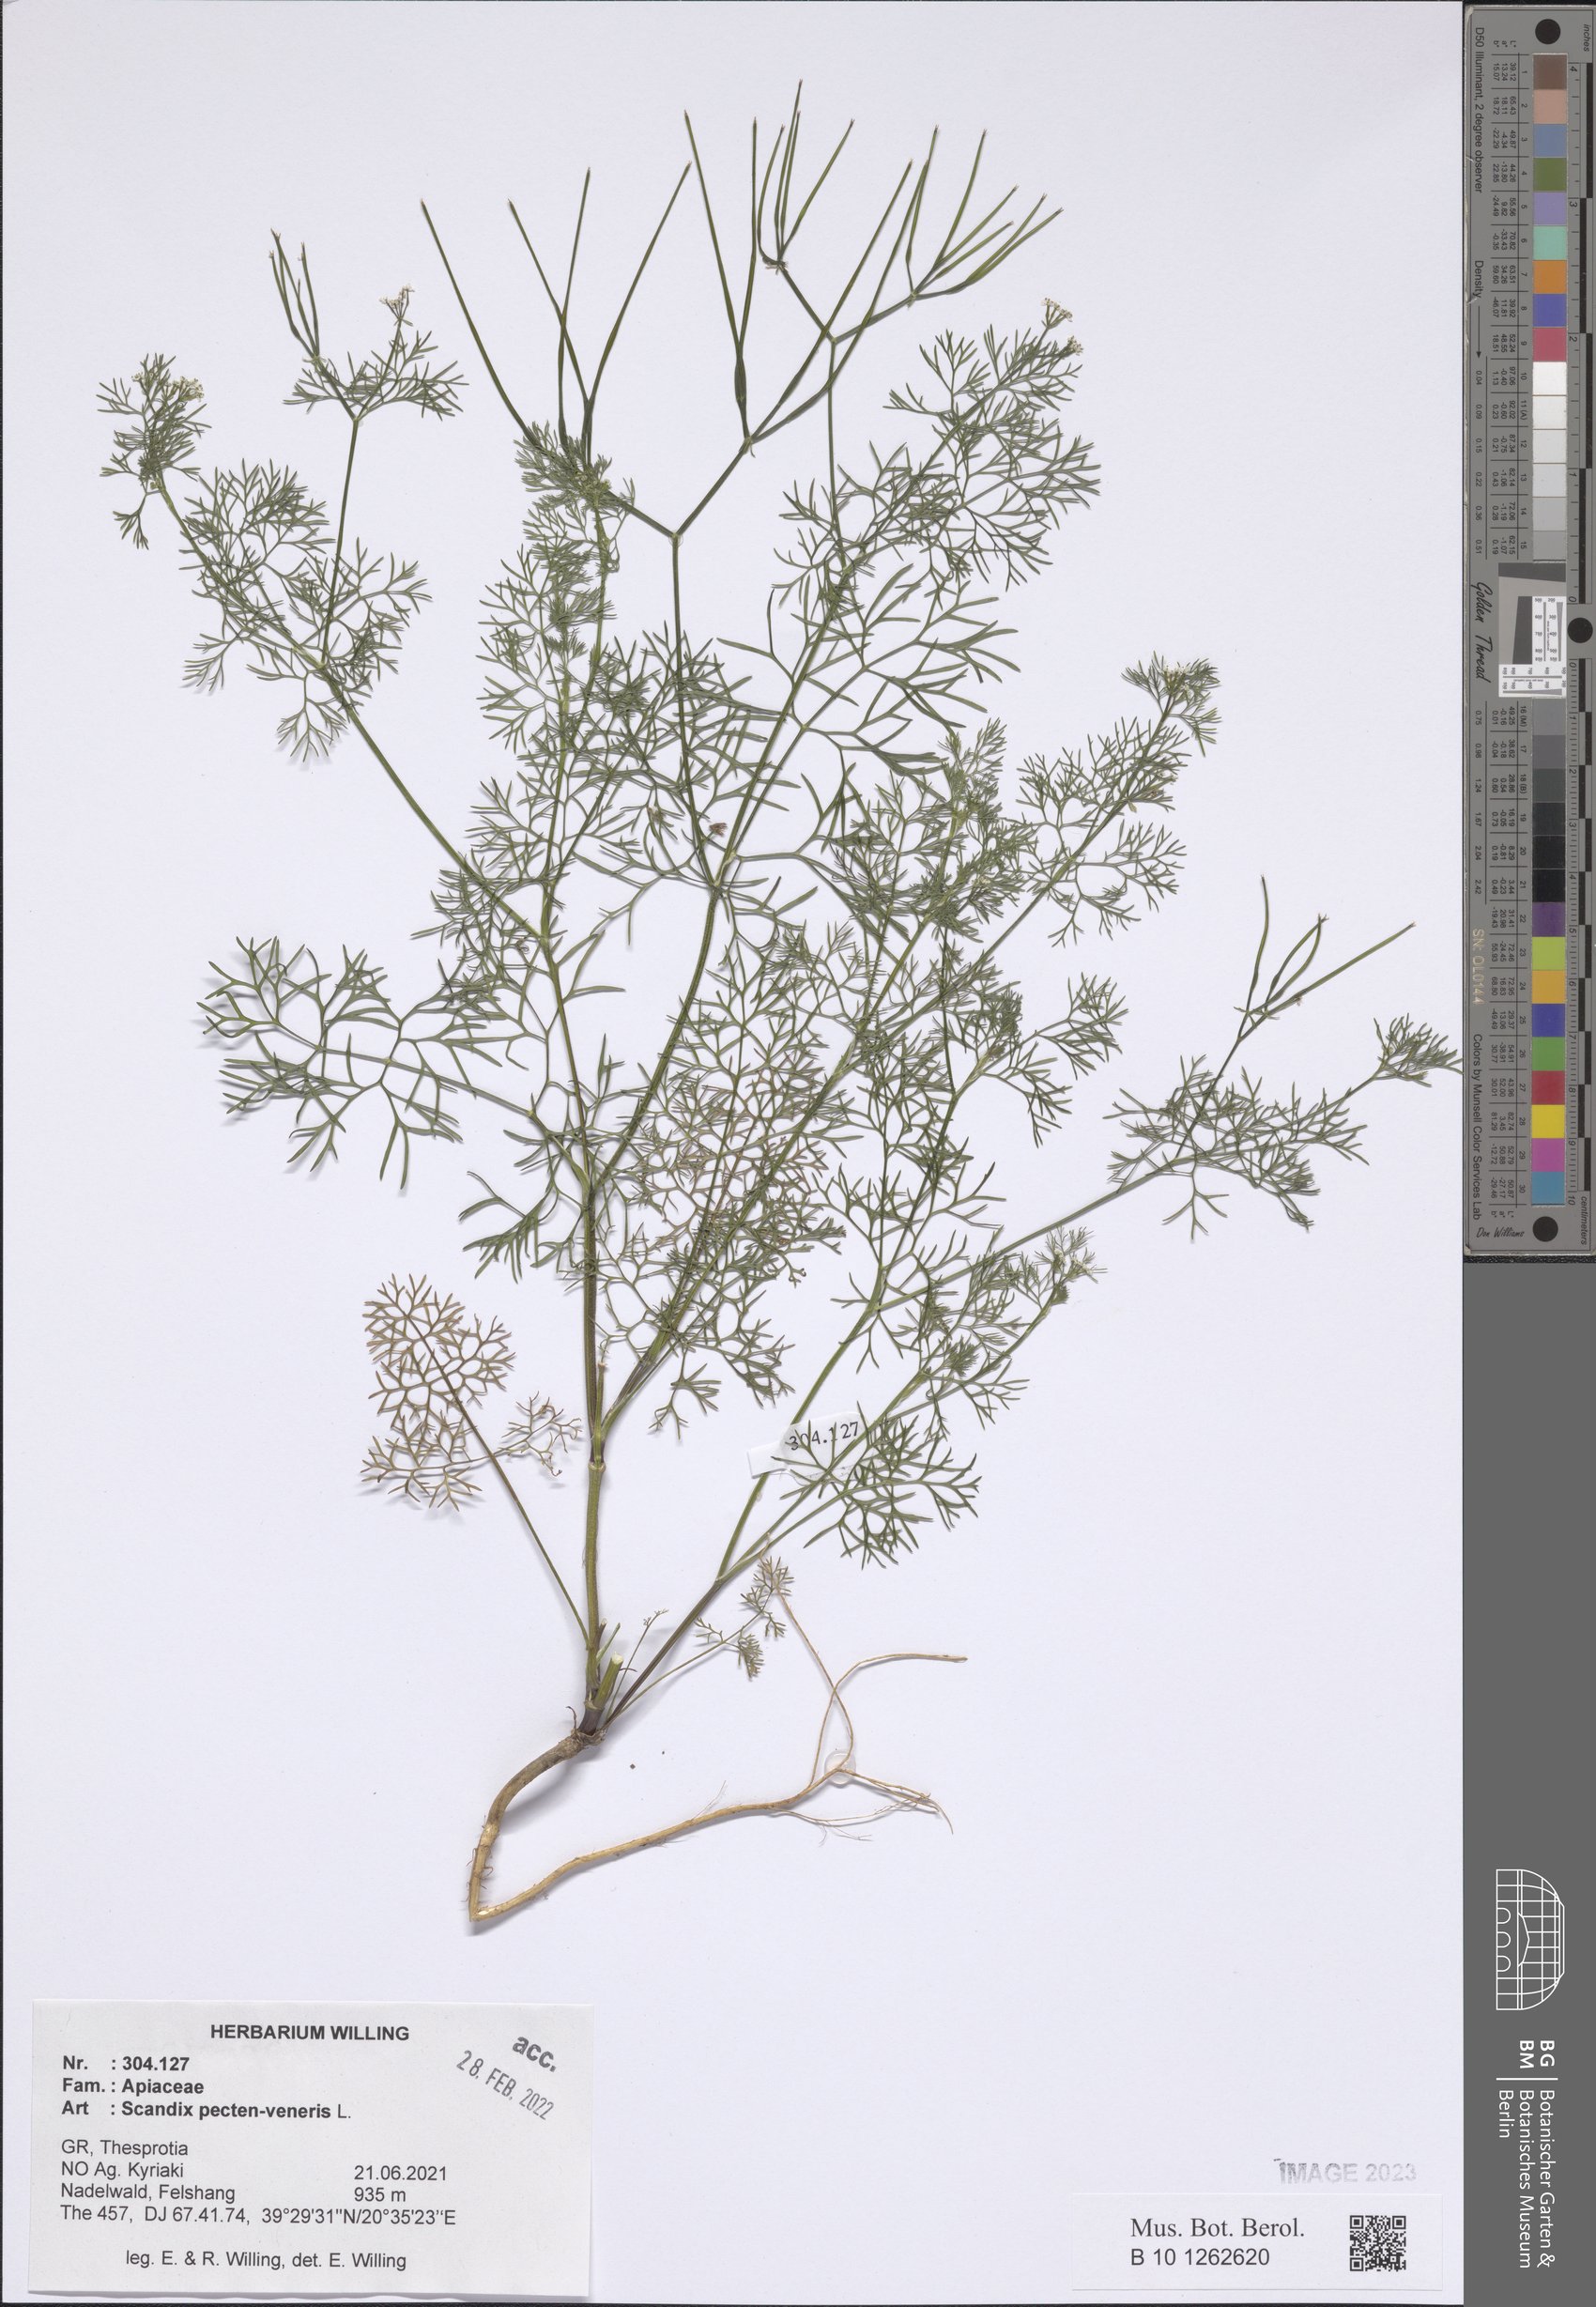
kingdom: Plantae
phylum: Tracheophyta
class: Magnoliopsida
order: Apiales
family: Apiaceae
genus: Scandix
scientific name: Scandix pecten-veneris
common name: Shepherd's-needle
